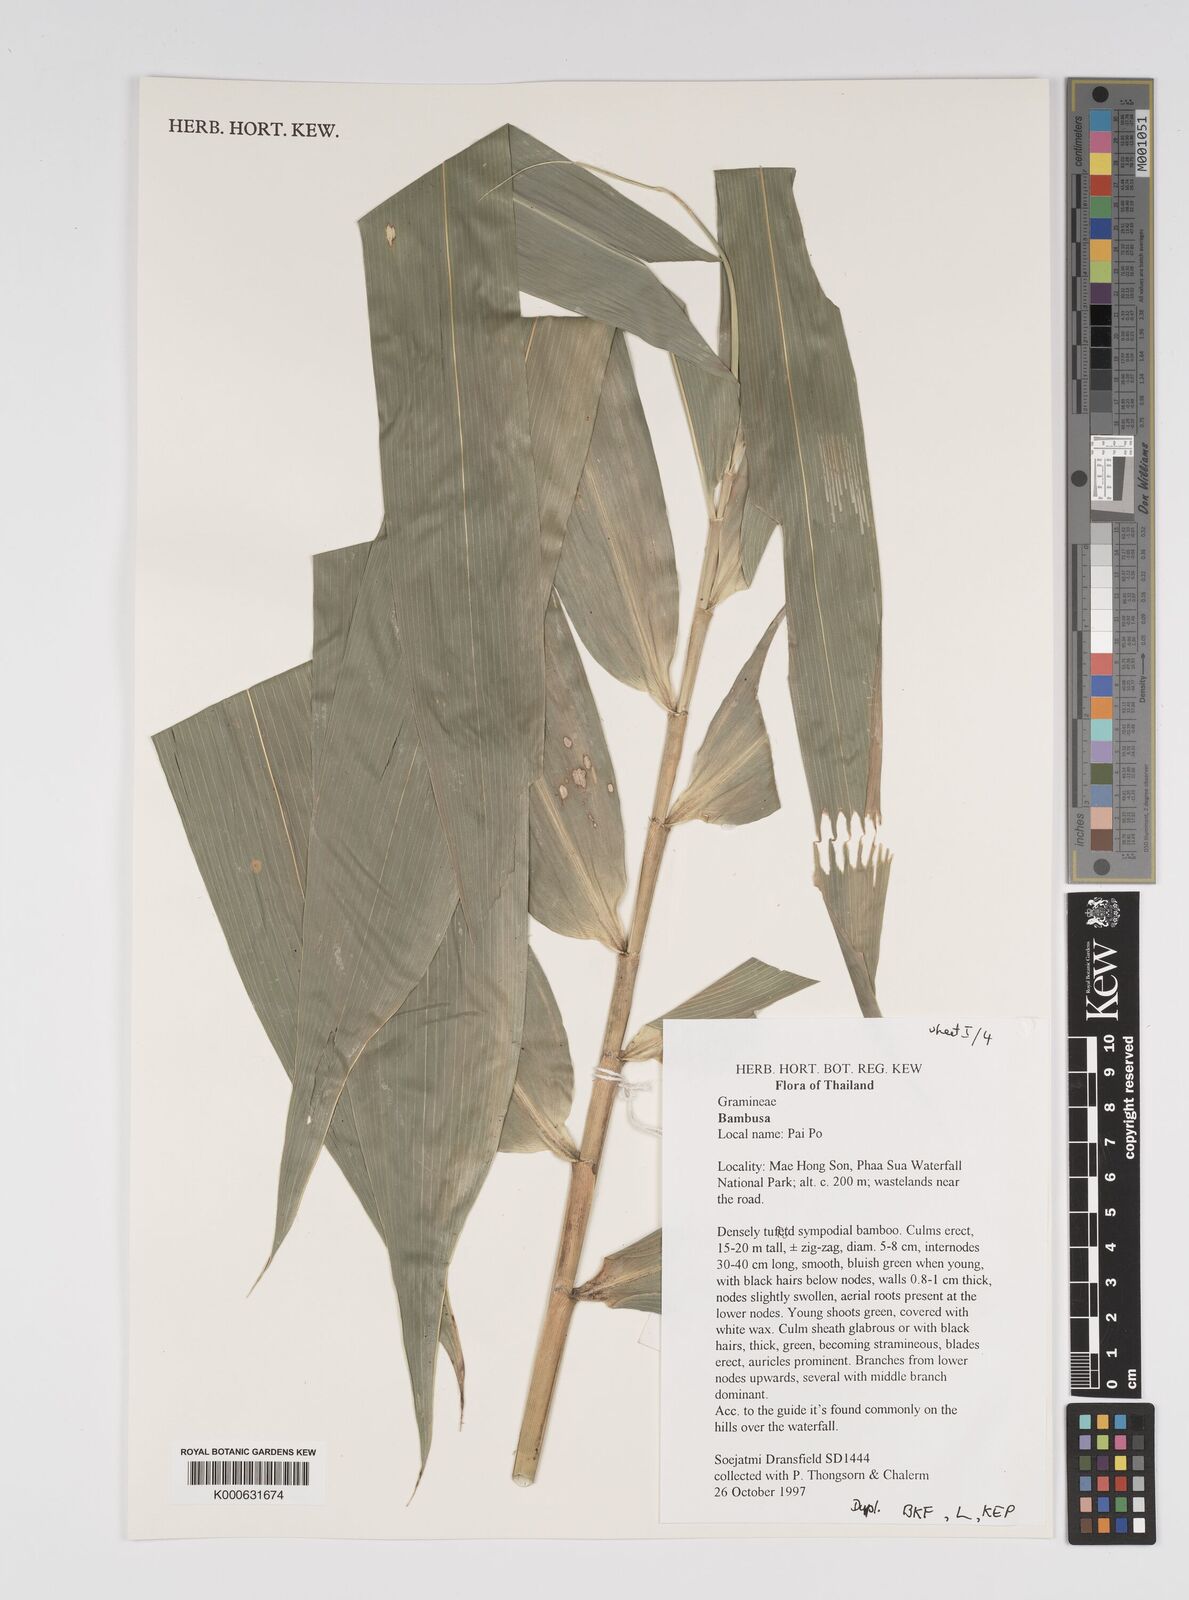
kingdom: Plantae
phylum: Tracheophyta
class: Liliopsida
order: Poales
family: Poaceae
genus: Bambusa
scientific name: Bambusa
